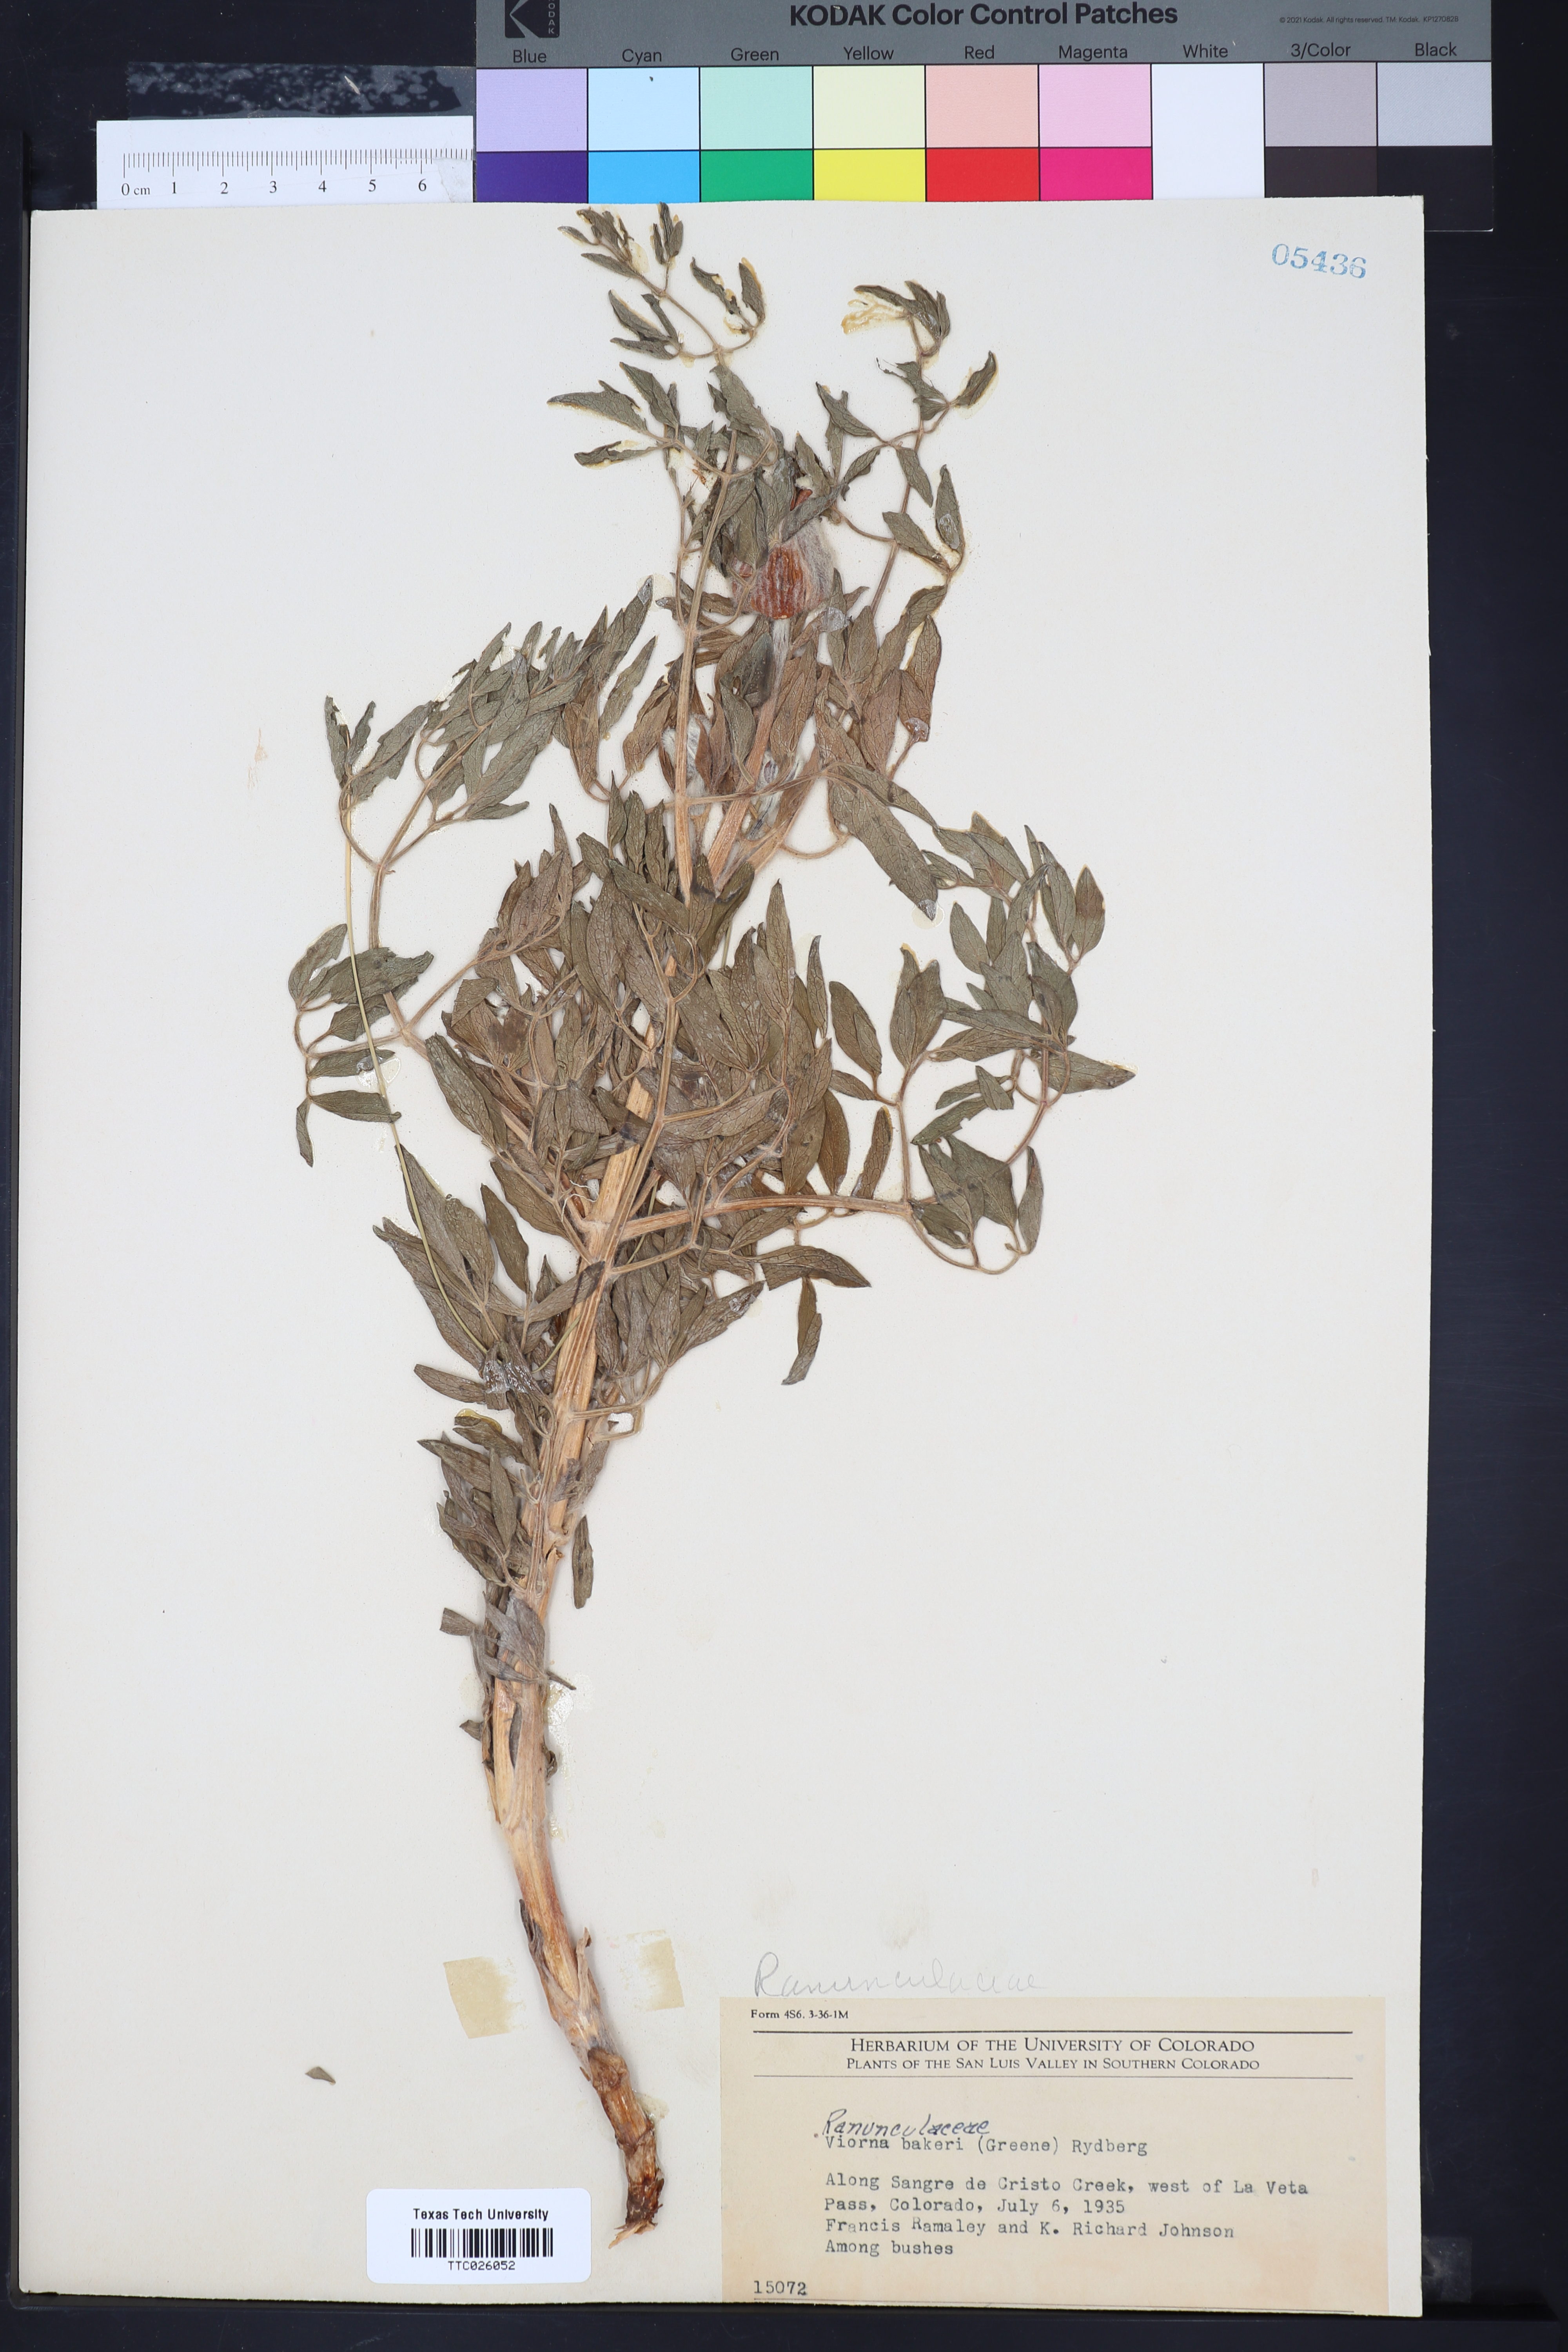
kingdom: Plantae
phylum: Tracheophyta
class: Magnoliopsida
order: Ranunculales
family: Ranunculaceae
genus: Clematis
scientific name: Clematis hirsutissima
